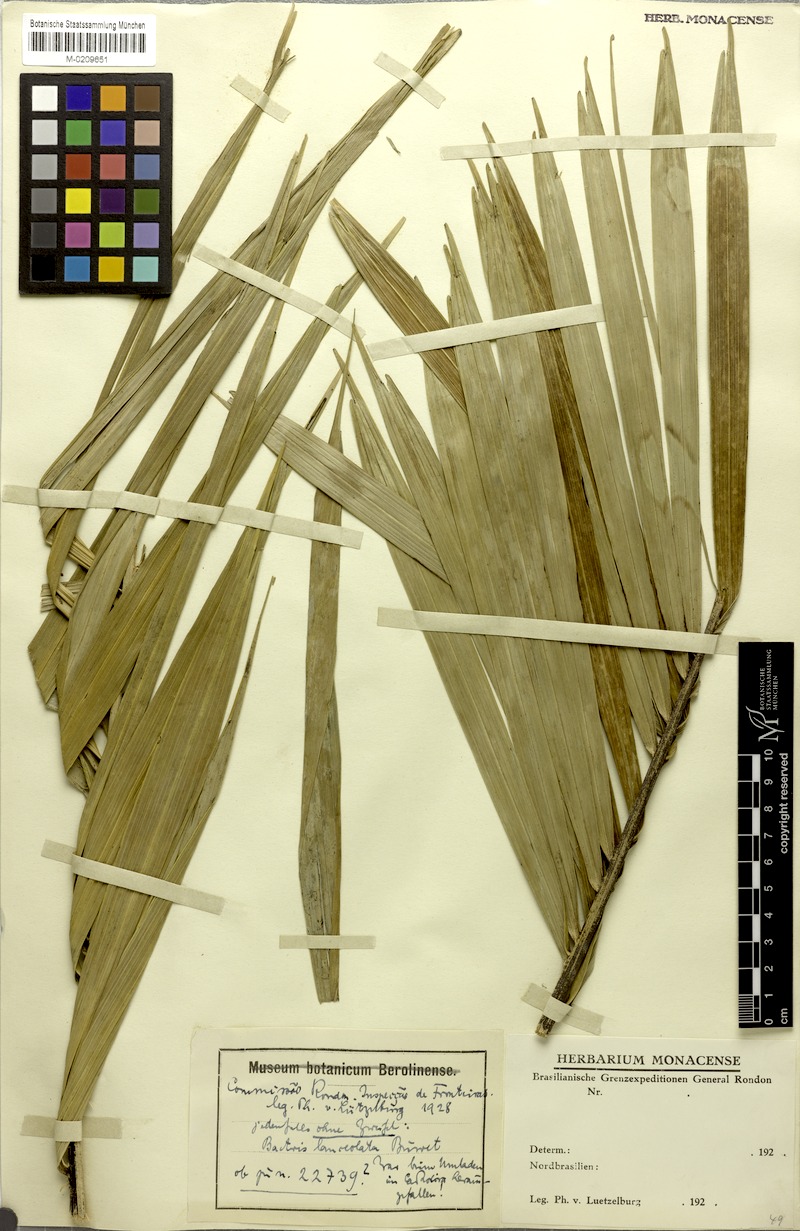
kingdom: Plantae
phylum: Tracheophyta
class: Liliopsida
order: Arecales
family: Arecaceae
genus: Bactris
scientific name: Bactris campestris
